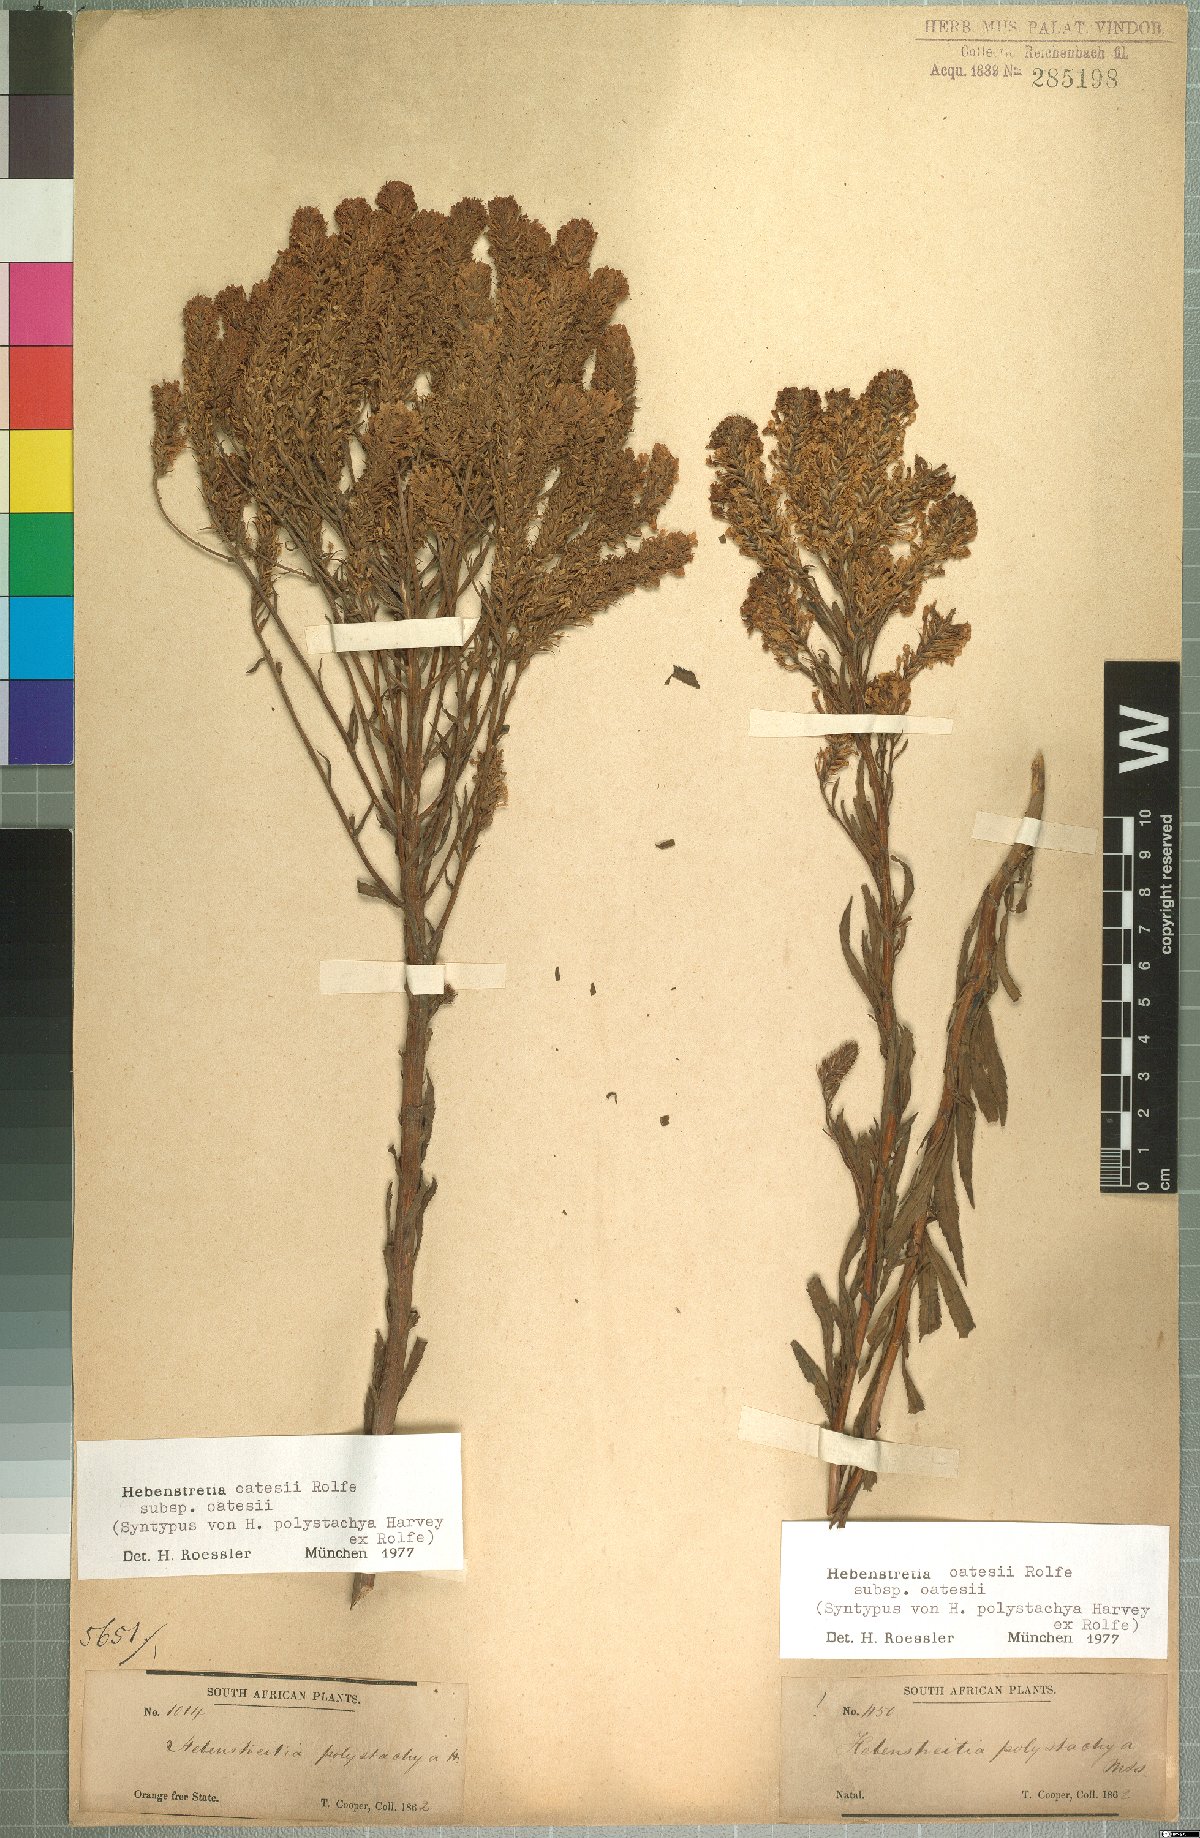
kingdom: Plantae
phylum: Tracheophyta
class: Magnoliopsida
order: Lamiales
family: Scrophulariaceae
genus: Hebenstretia
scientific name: Hebenstretia oatesii
